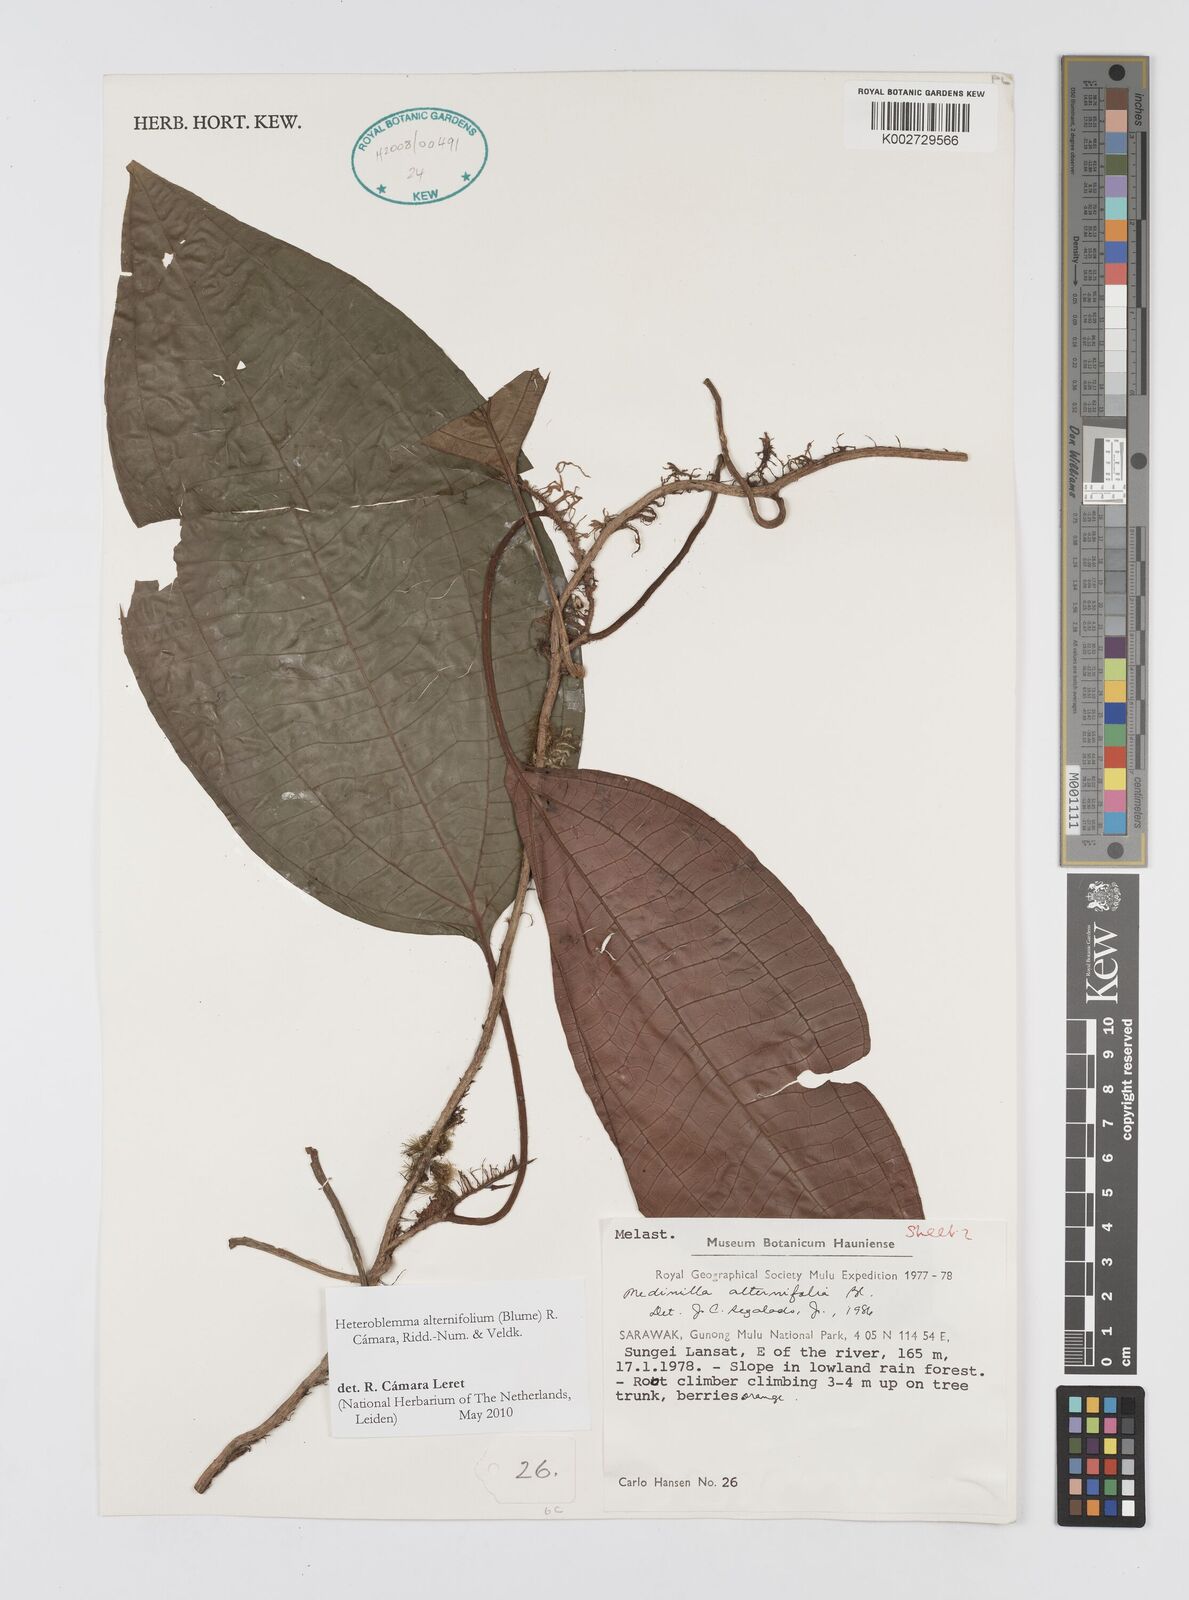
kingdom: Plantae
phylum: Tracheophyta
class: Magnoliopsida
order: Myrtales
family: Melastomataceae
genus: Heteroblemma
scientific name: Heteroblemma alternifolium
